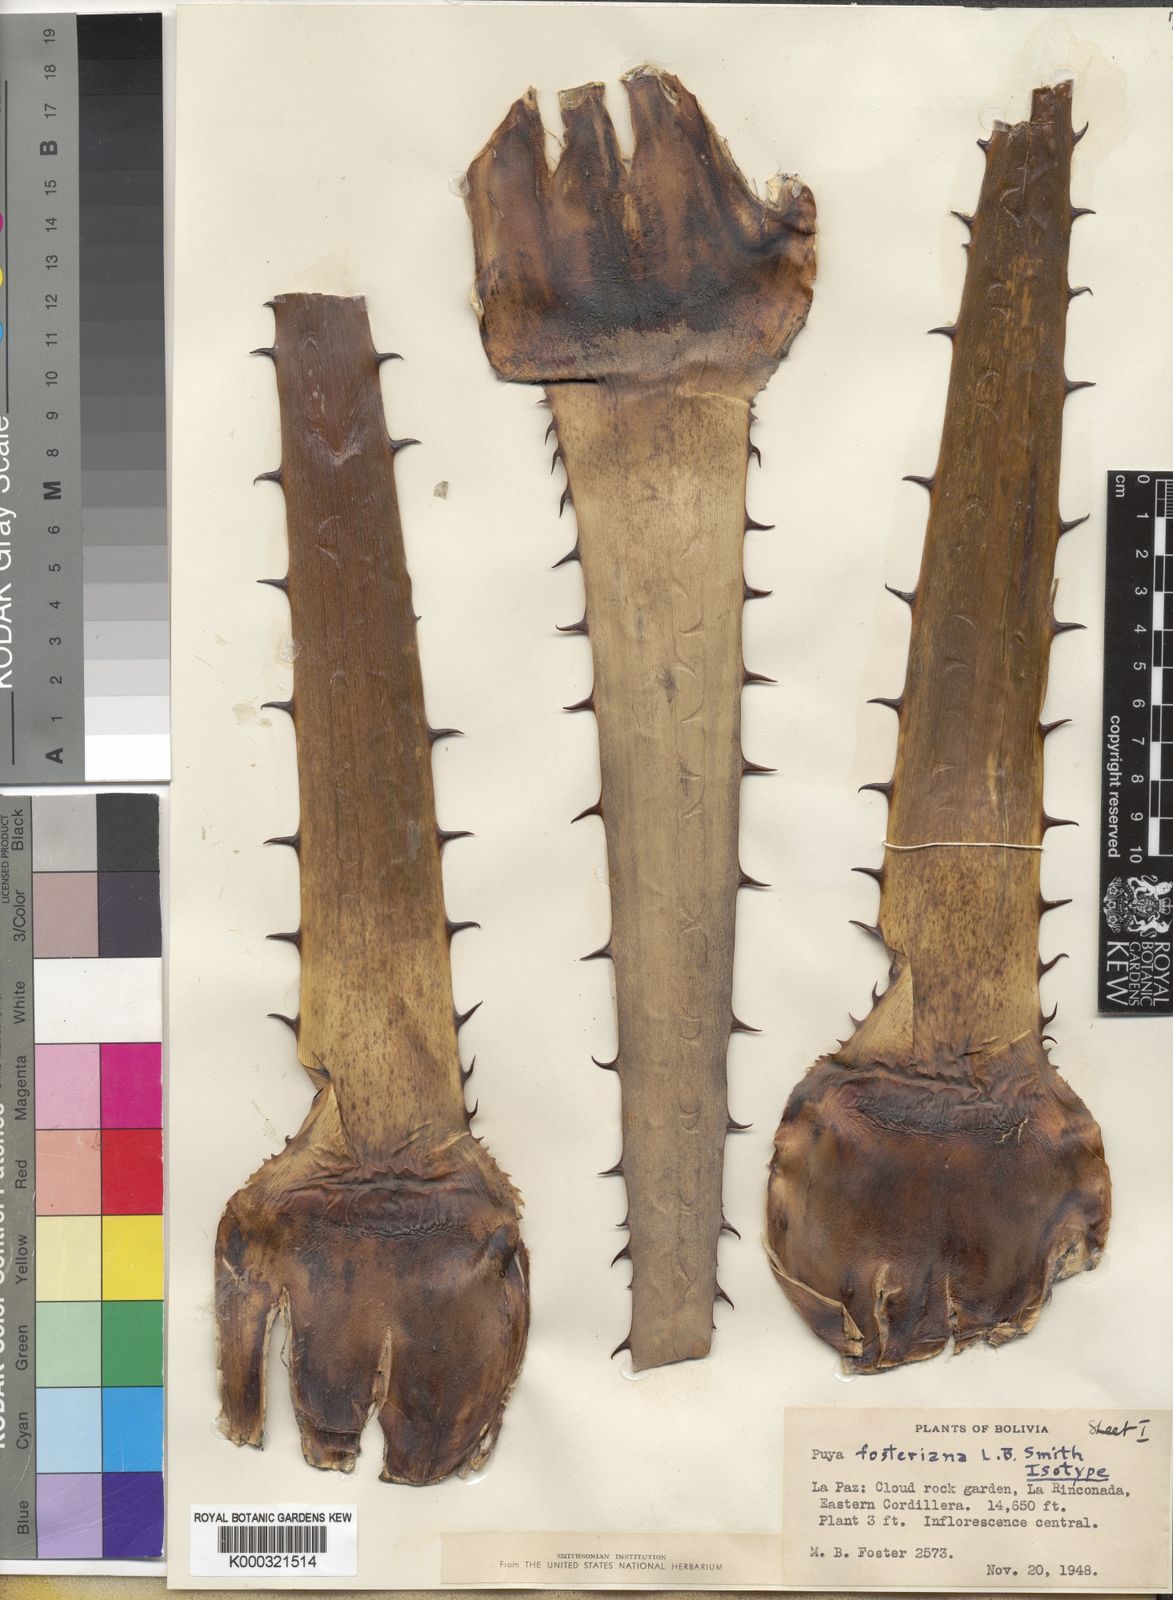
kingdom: Plantae
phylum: Tracheophyta
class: Liliopsida
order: Poales
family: Bromeliaceae
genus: Puya
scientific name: Puya fosteriana
